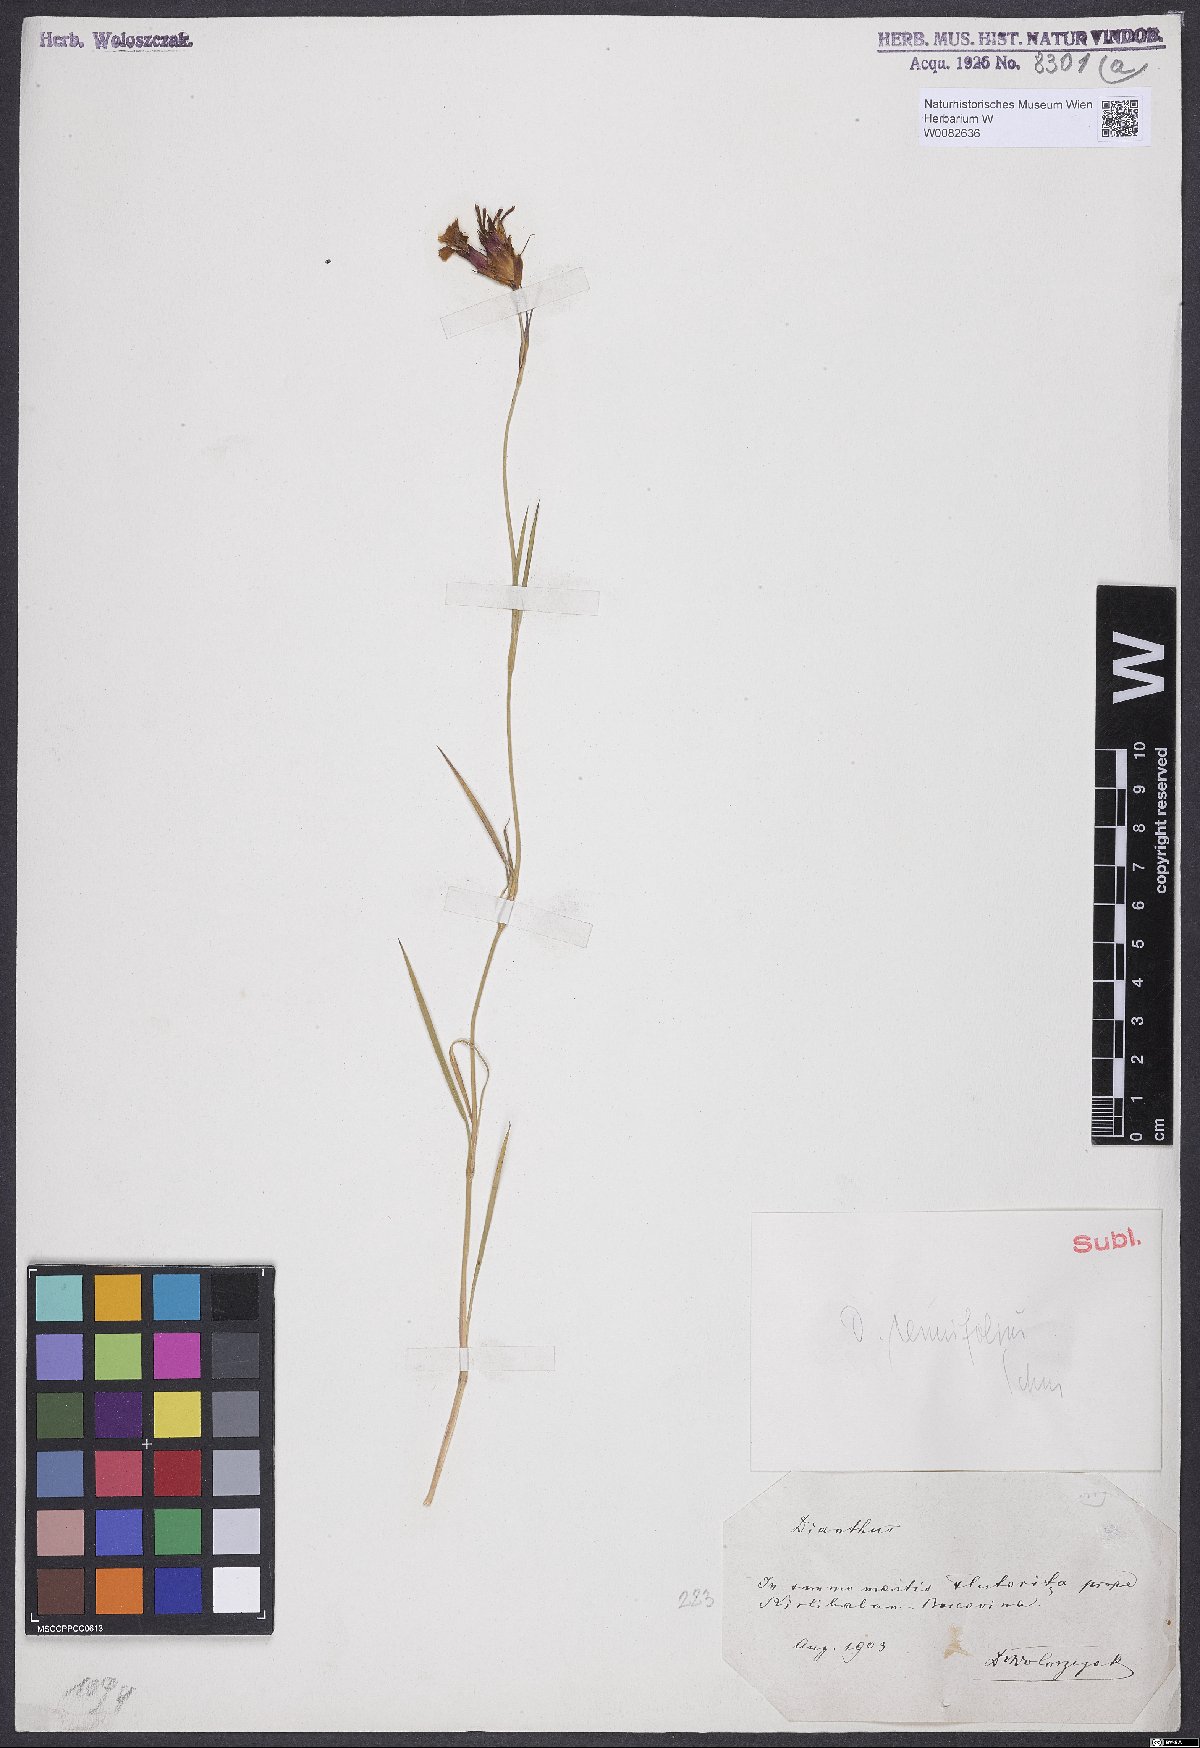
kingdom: Plantae
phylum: Tracheophyta
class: Magnoliopsida
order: Caryophyllales
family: Caryophyllaceae
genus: Dianthus
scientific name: Dianthus carthusianorum
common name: Carthusian pink
